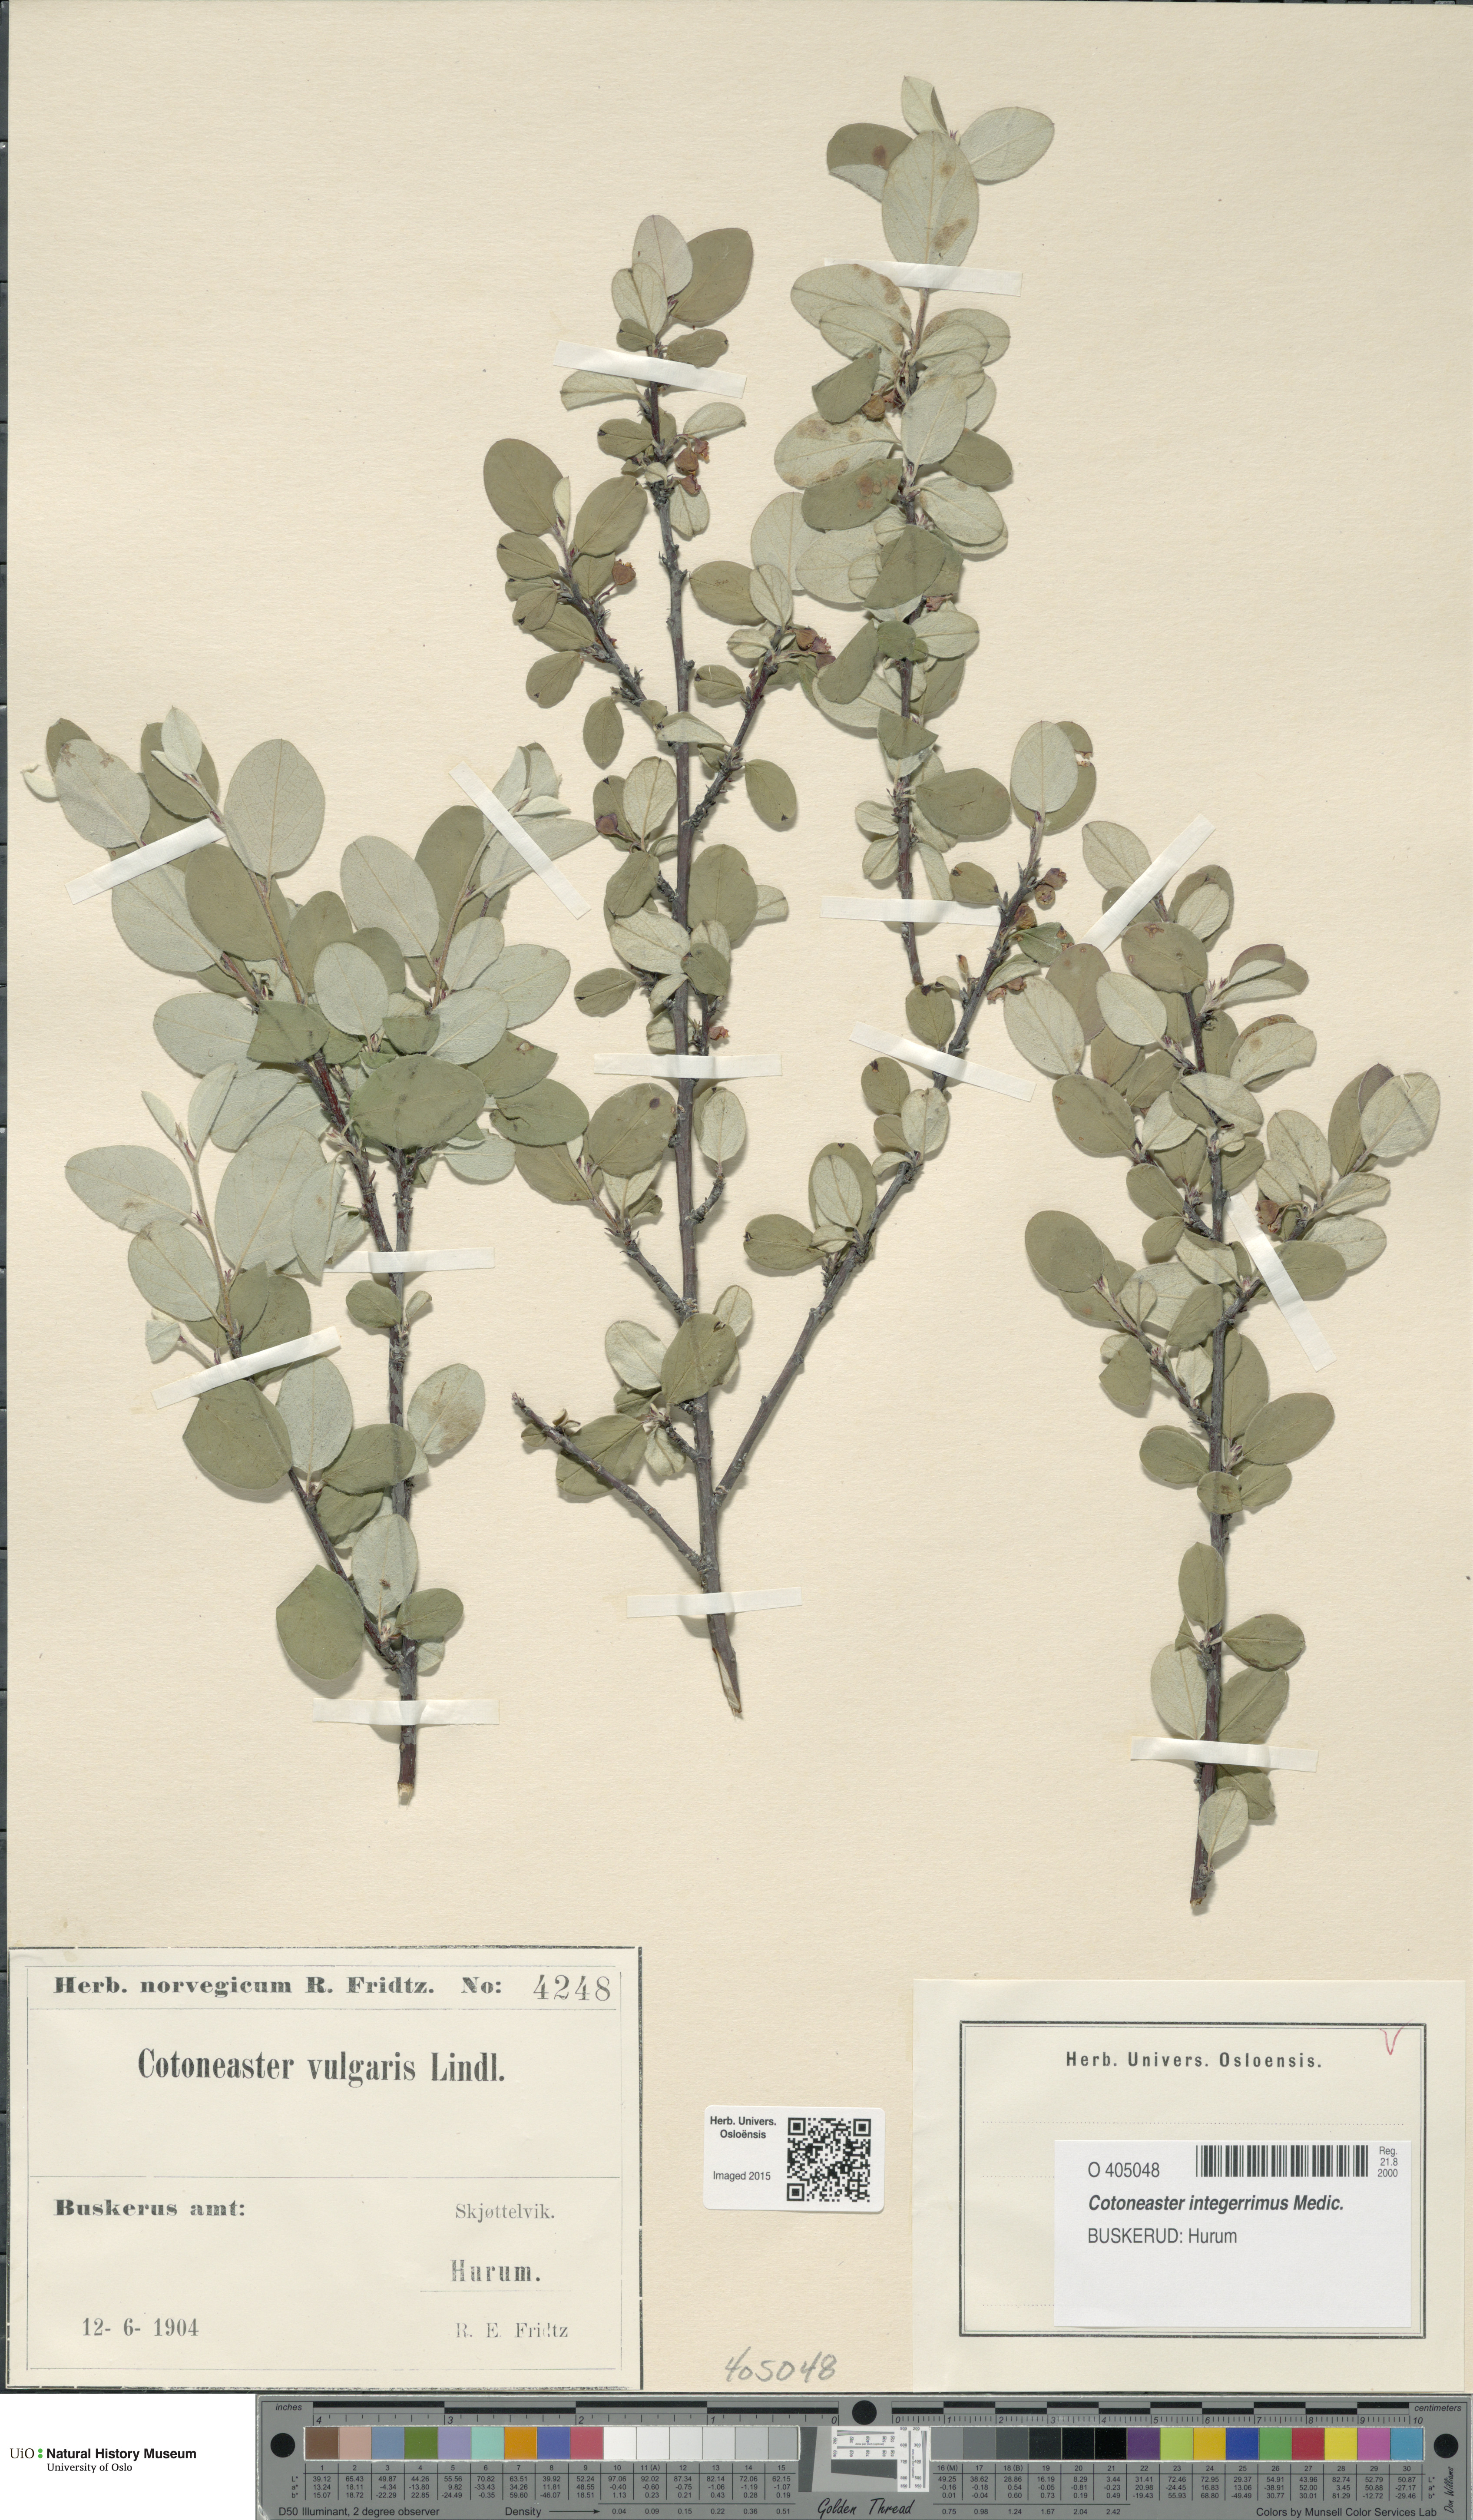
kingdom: Plantae
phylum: Tracheophyta
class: Magnoliopsida
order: Rosales
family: Rosaceae
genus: Cotoneaster
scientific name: Cotoneaster integerrimus
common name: Wild cotoneaster
